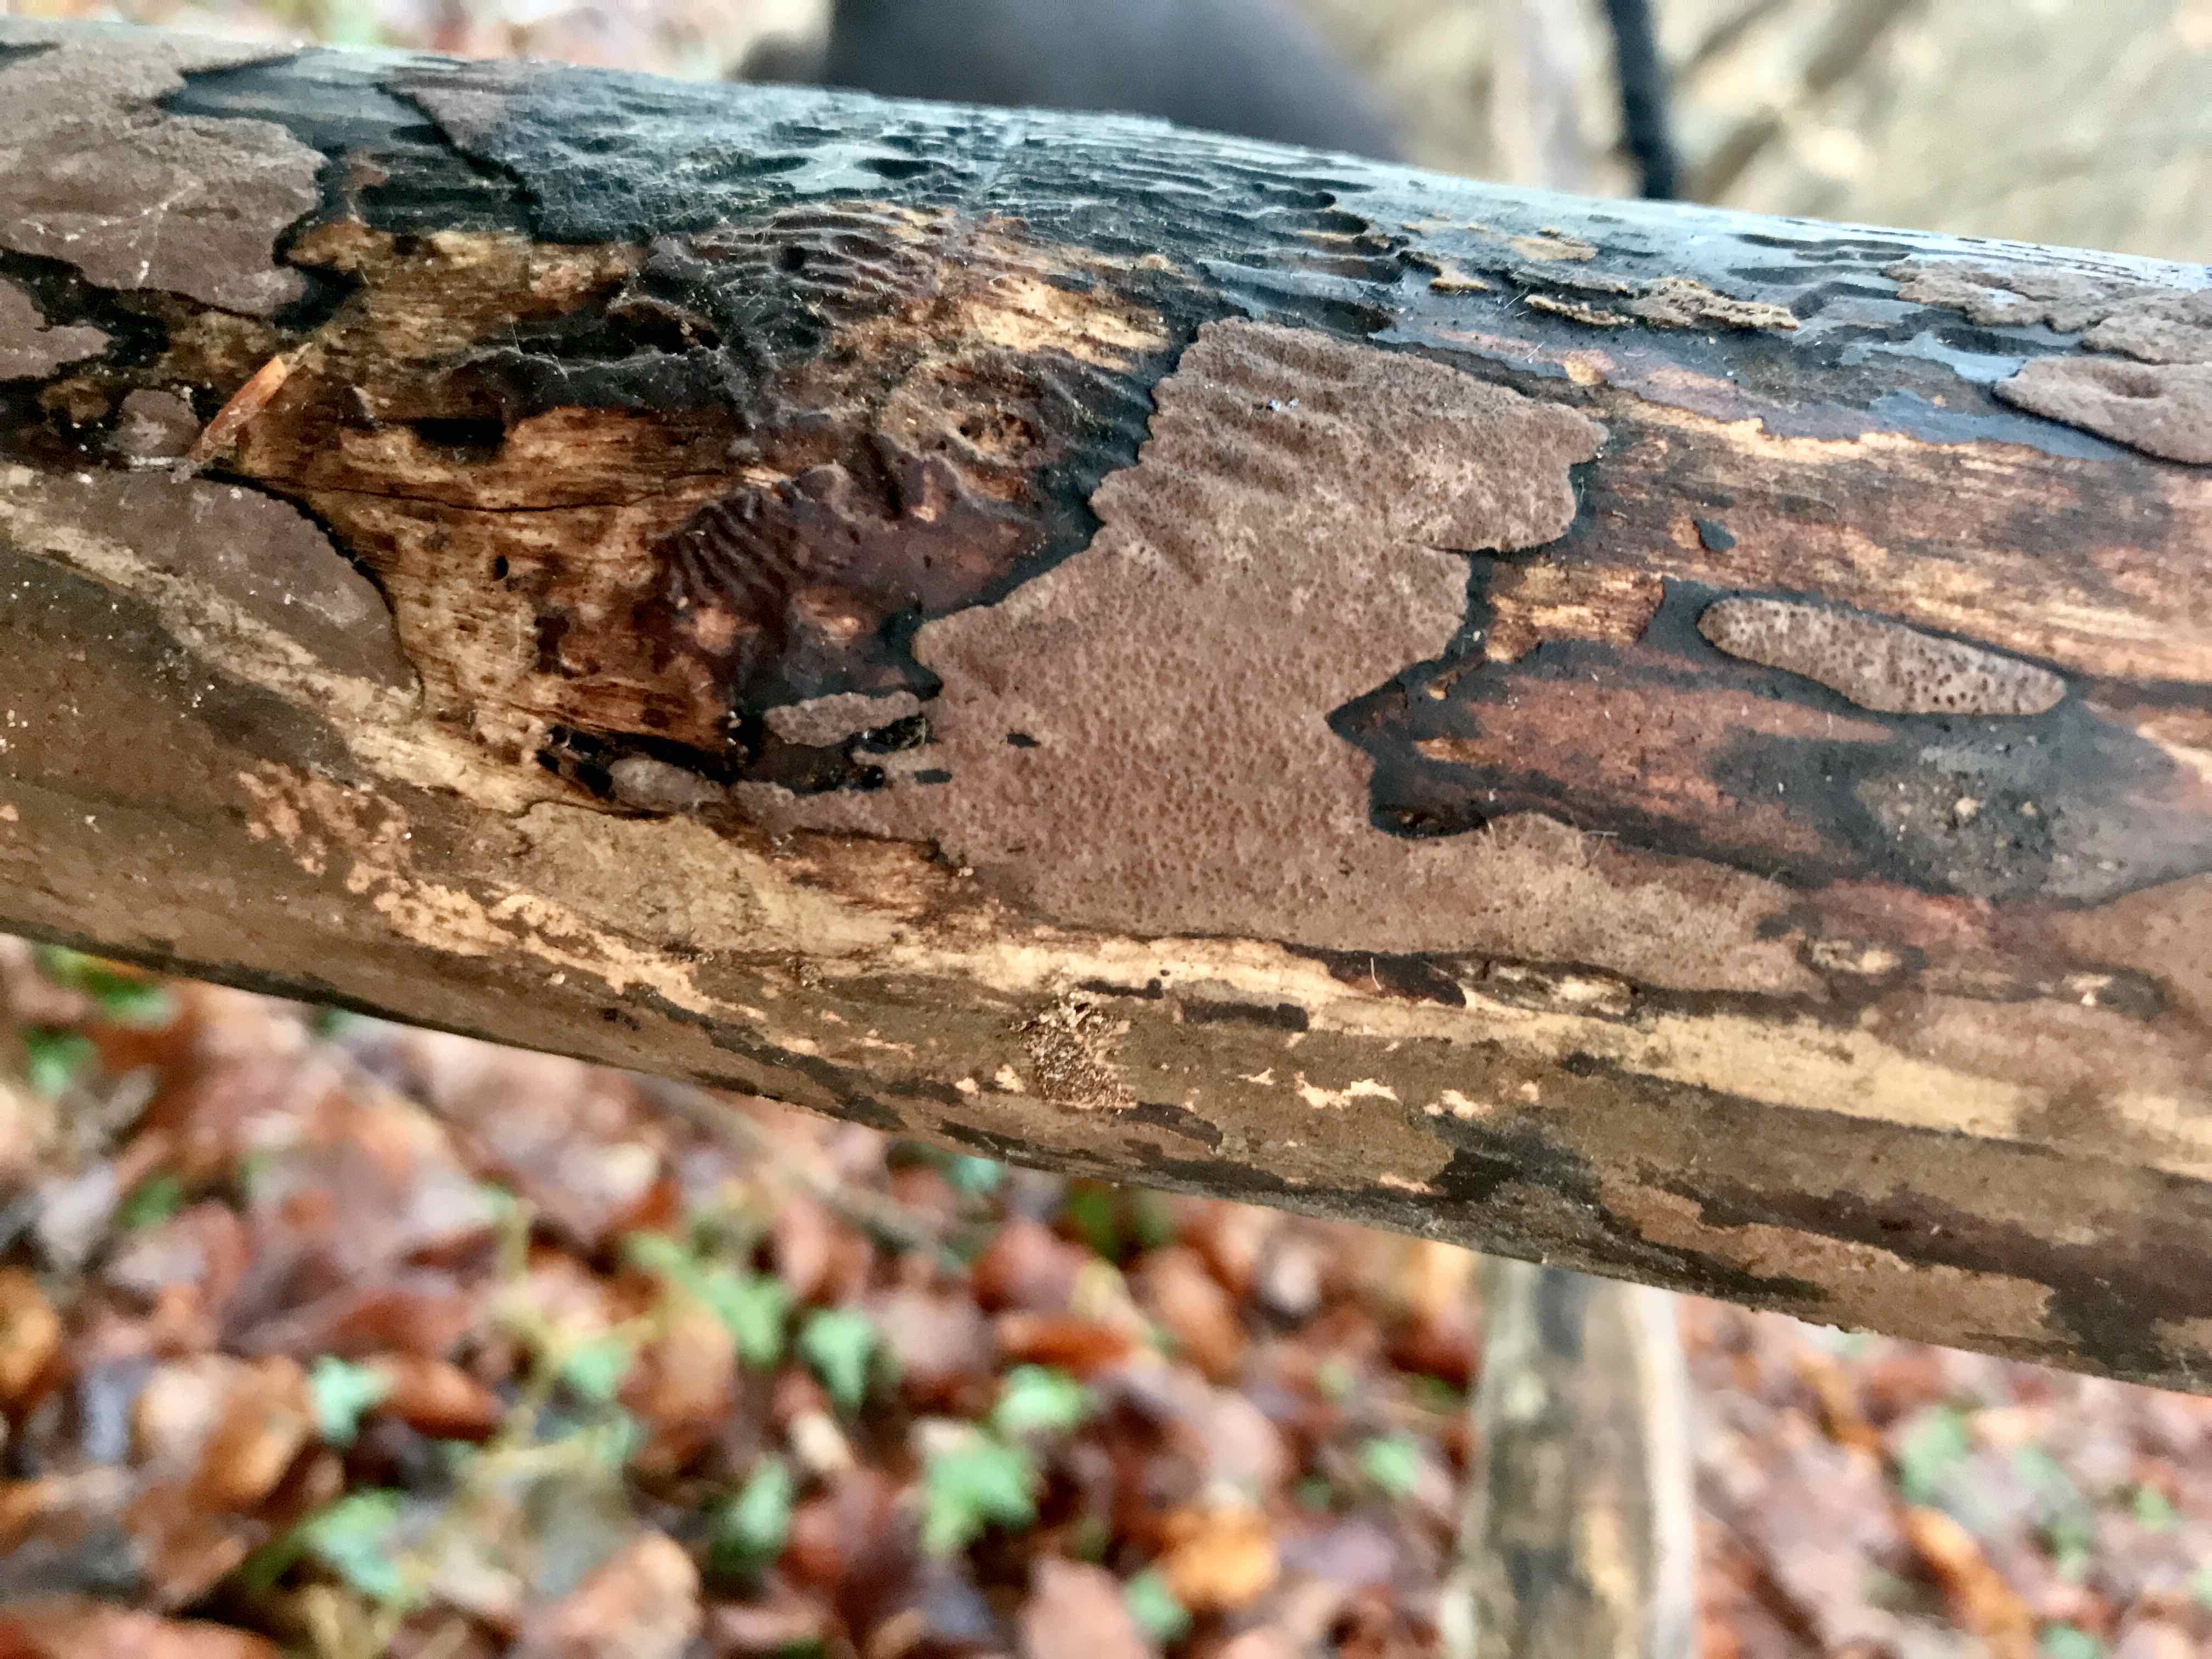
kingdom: Fungi
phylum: Ascomycota
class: Sordariomycetes
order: Xylariales
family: Hypoxylaceae
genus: Hypoxylon
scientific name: Hypoxylon petriniae
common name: nedsænket kulbær
